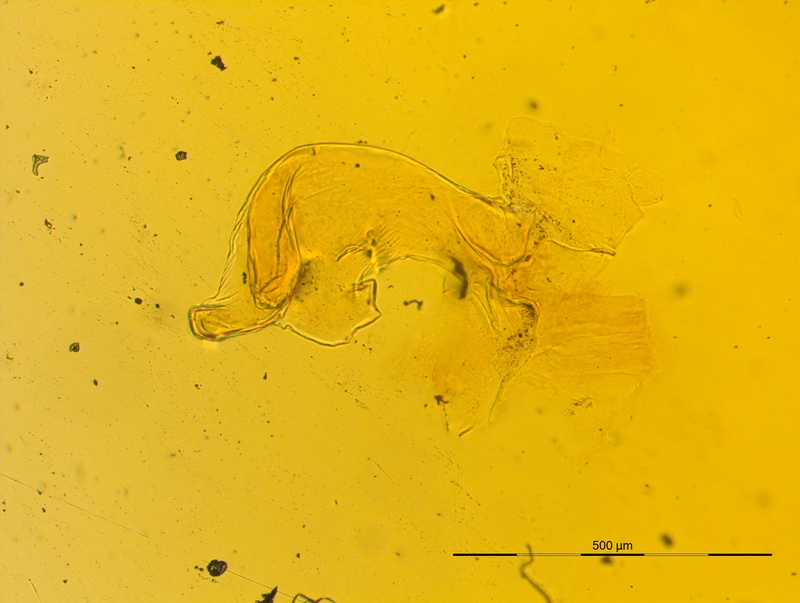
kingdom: Animalia
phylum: Arthropoda
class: Diplopoda
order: Chordeumatida
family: Craspedosomatidae
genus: Craspedosoma
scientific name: Craspedosoma rawlinsii
